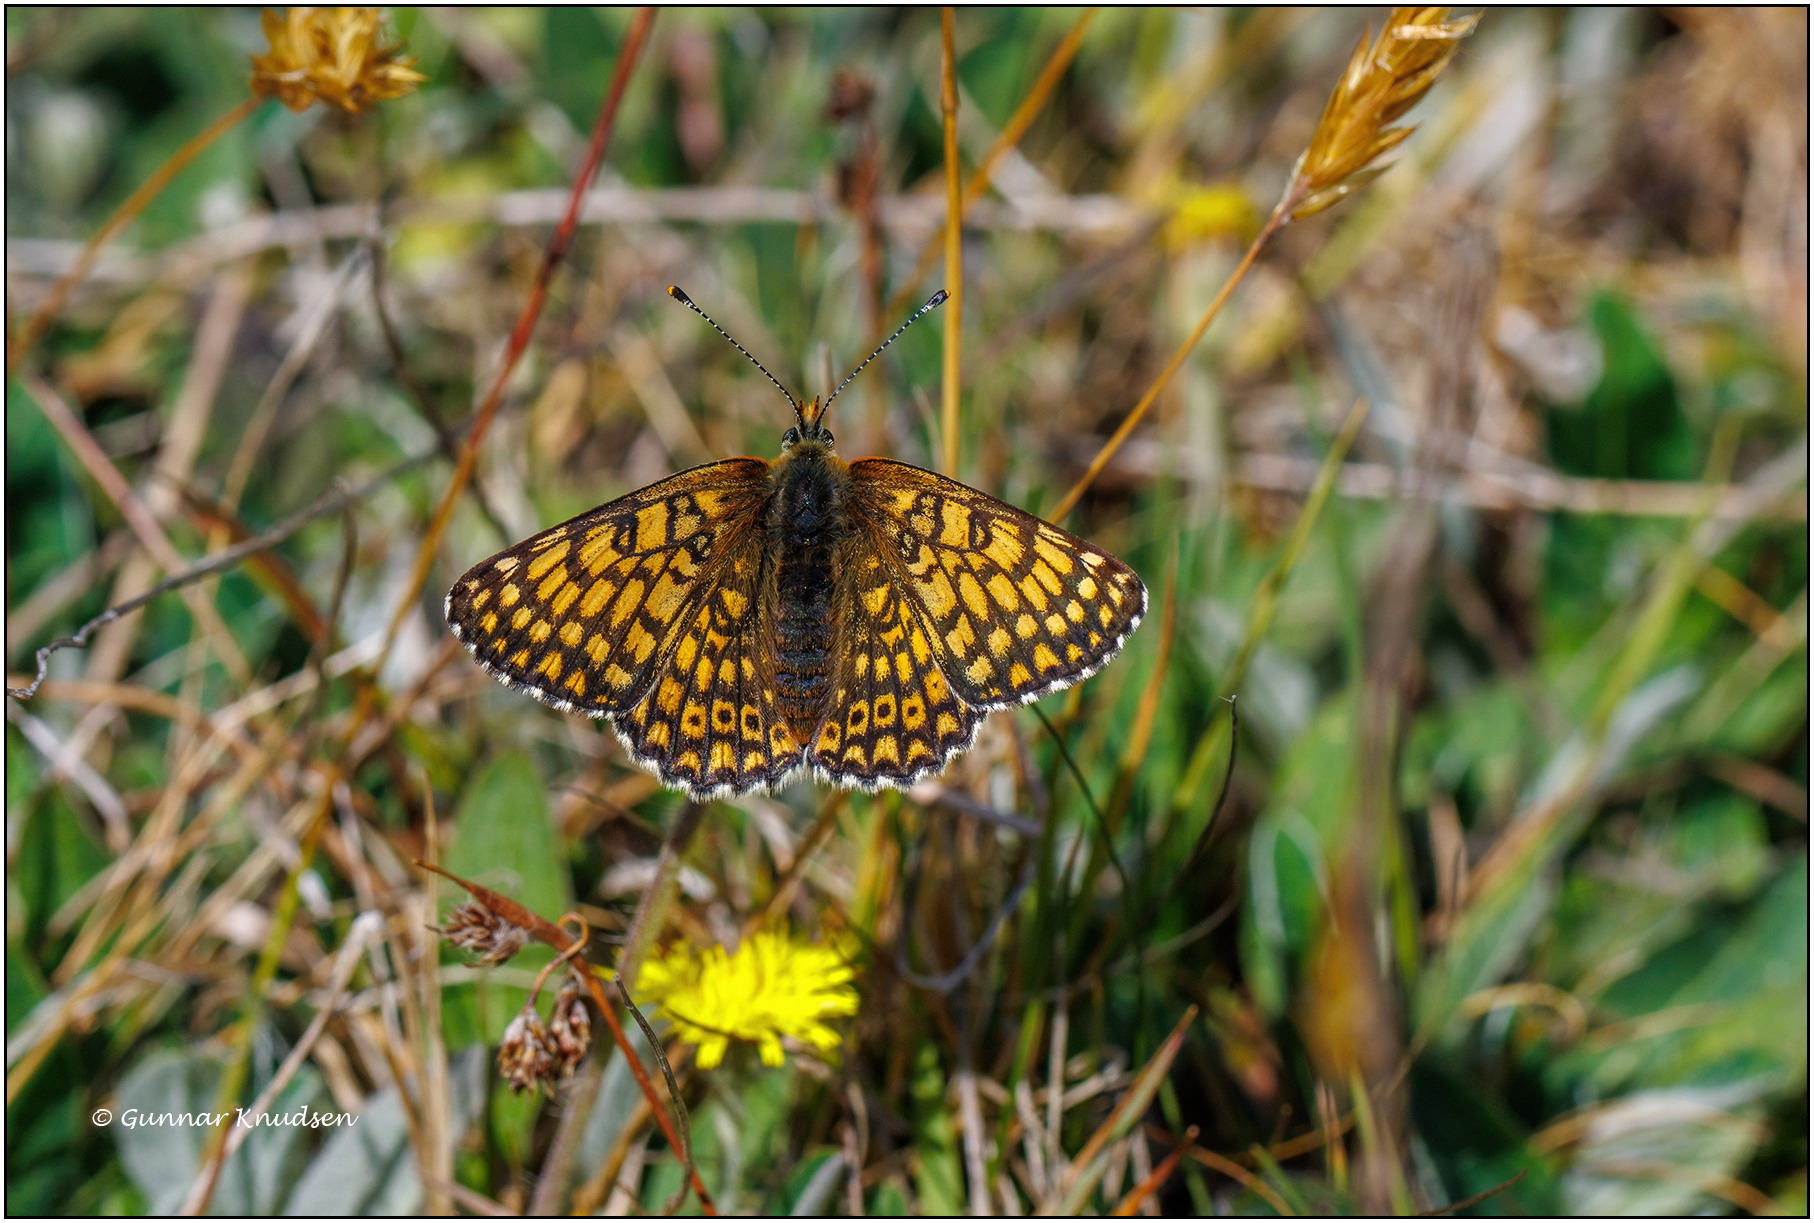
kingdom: Animalia
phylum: Arthropoda
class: Insecta
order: Lepidoptera
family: Nymphalidae
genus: Melitaea
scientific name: Melitaea cinxia
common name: Okkergul pletvinge
